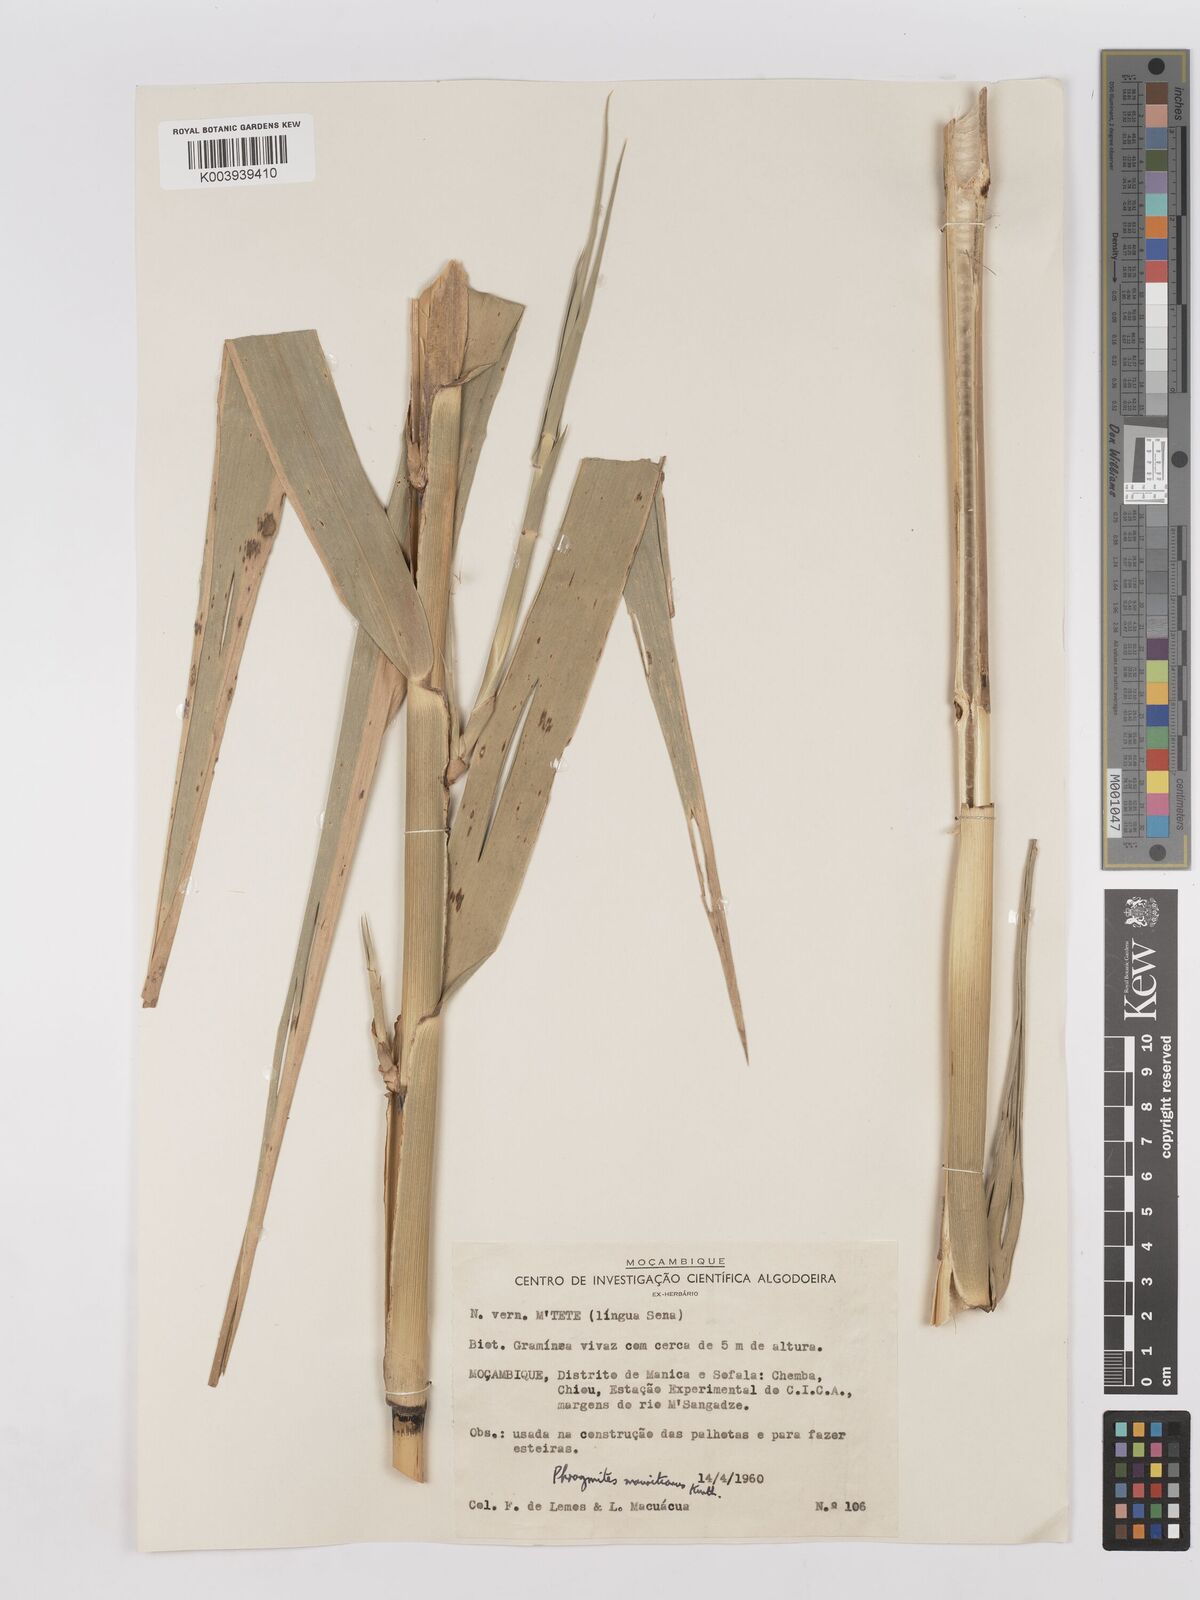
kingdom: Plantae
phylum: Tracheophyta
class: Liliopsida
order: Poales
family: Poaceae
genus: Phragmites
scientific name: Phragmites mauritianus
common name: Reed grass
